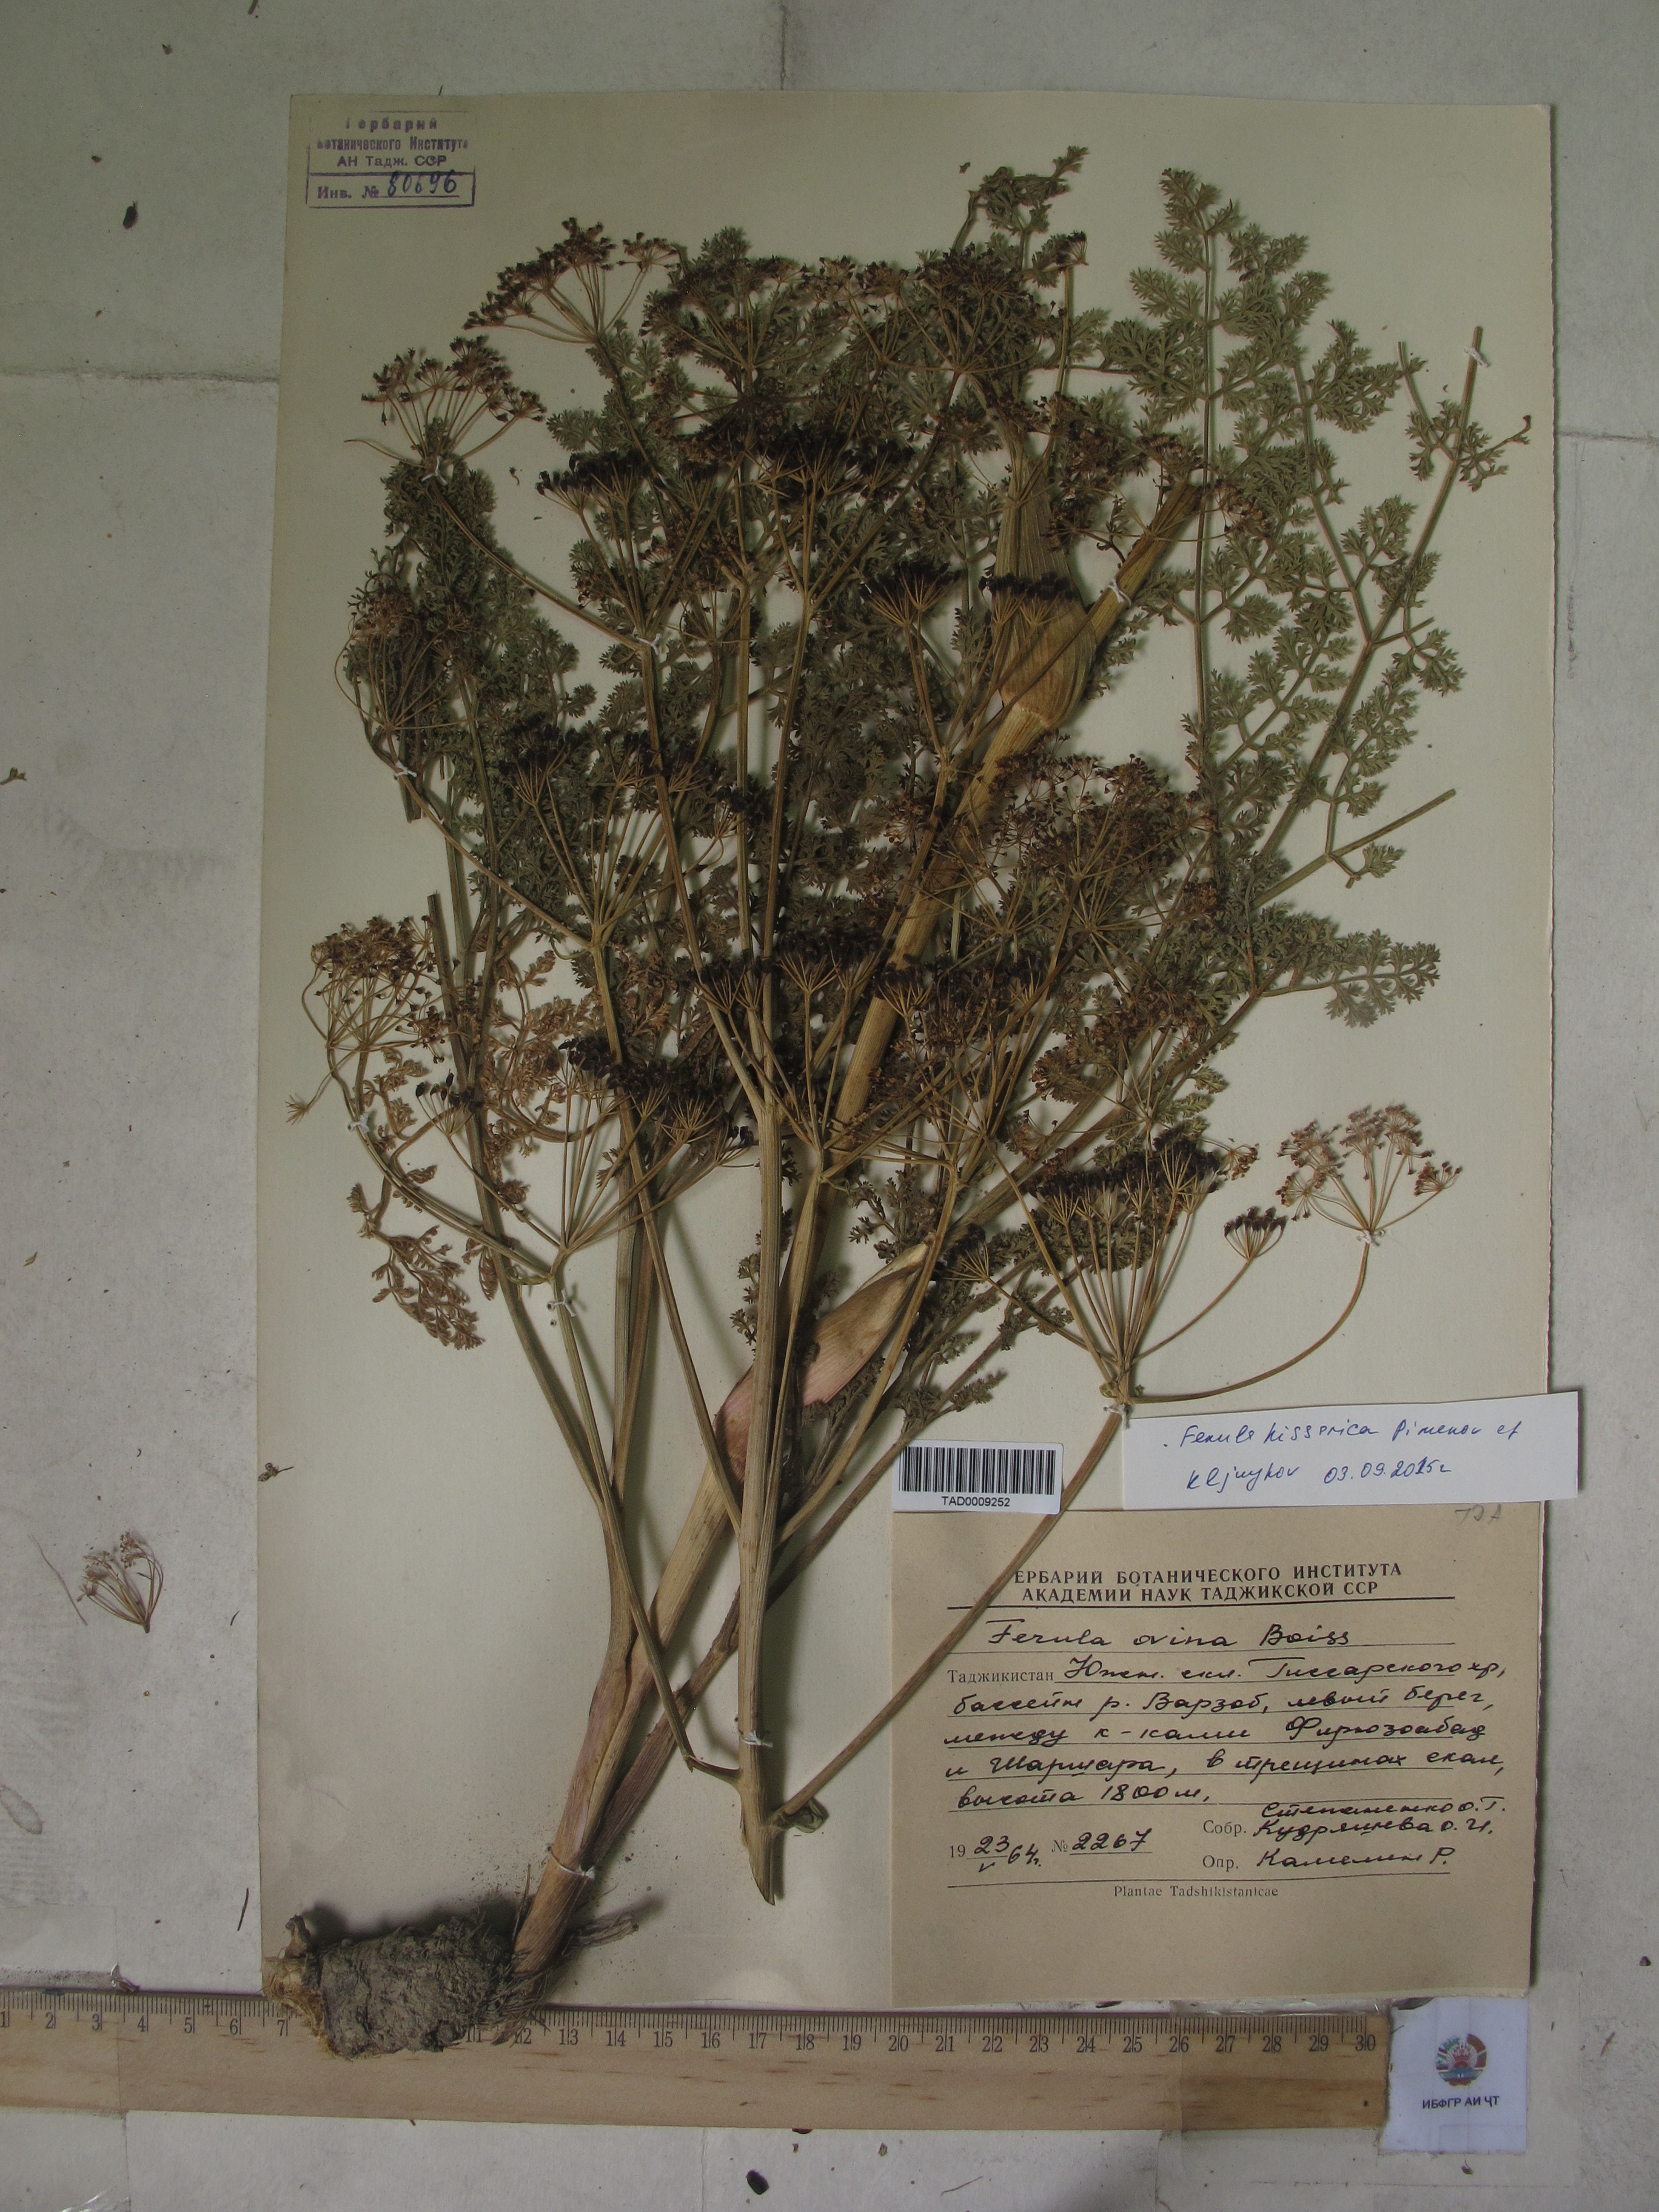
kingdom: Plantae
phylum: Tracheophyta
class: Magnoliopsida
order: Apiales
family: Apiaceae
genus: Ferula
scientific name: Ferula
